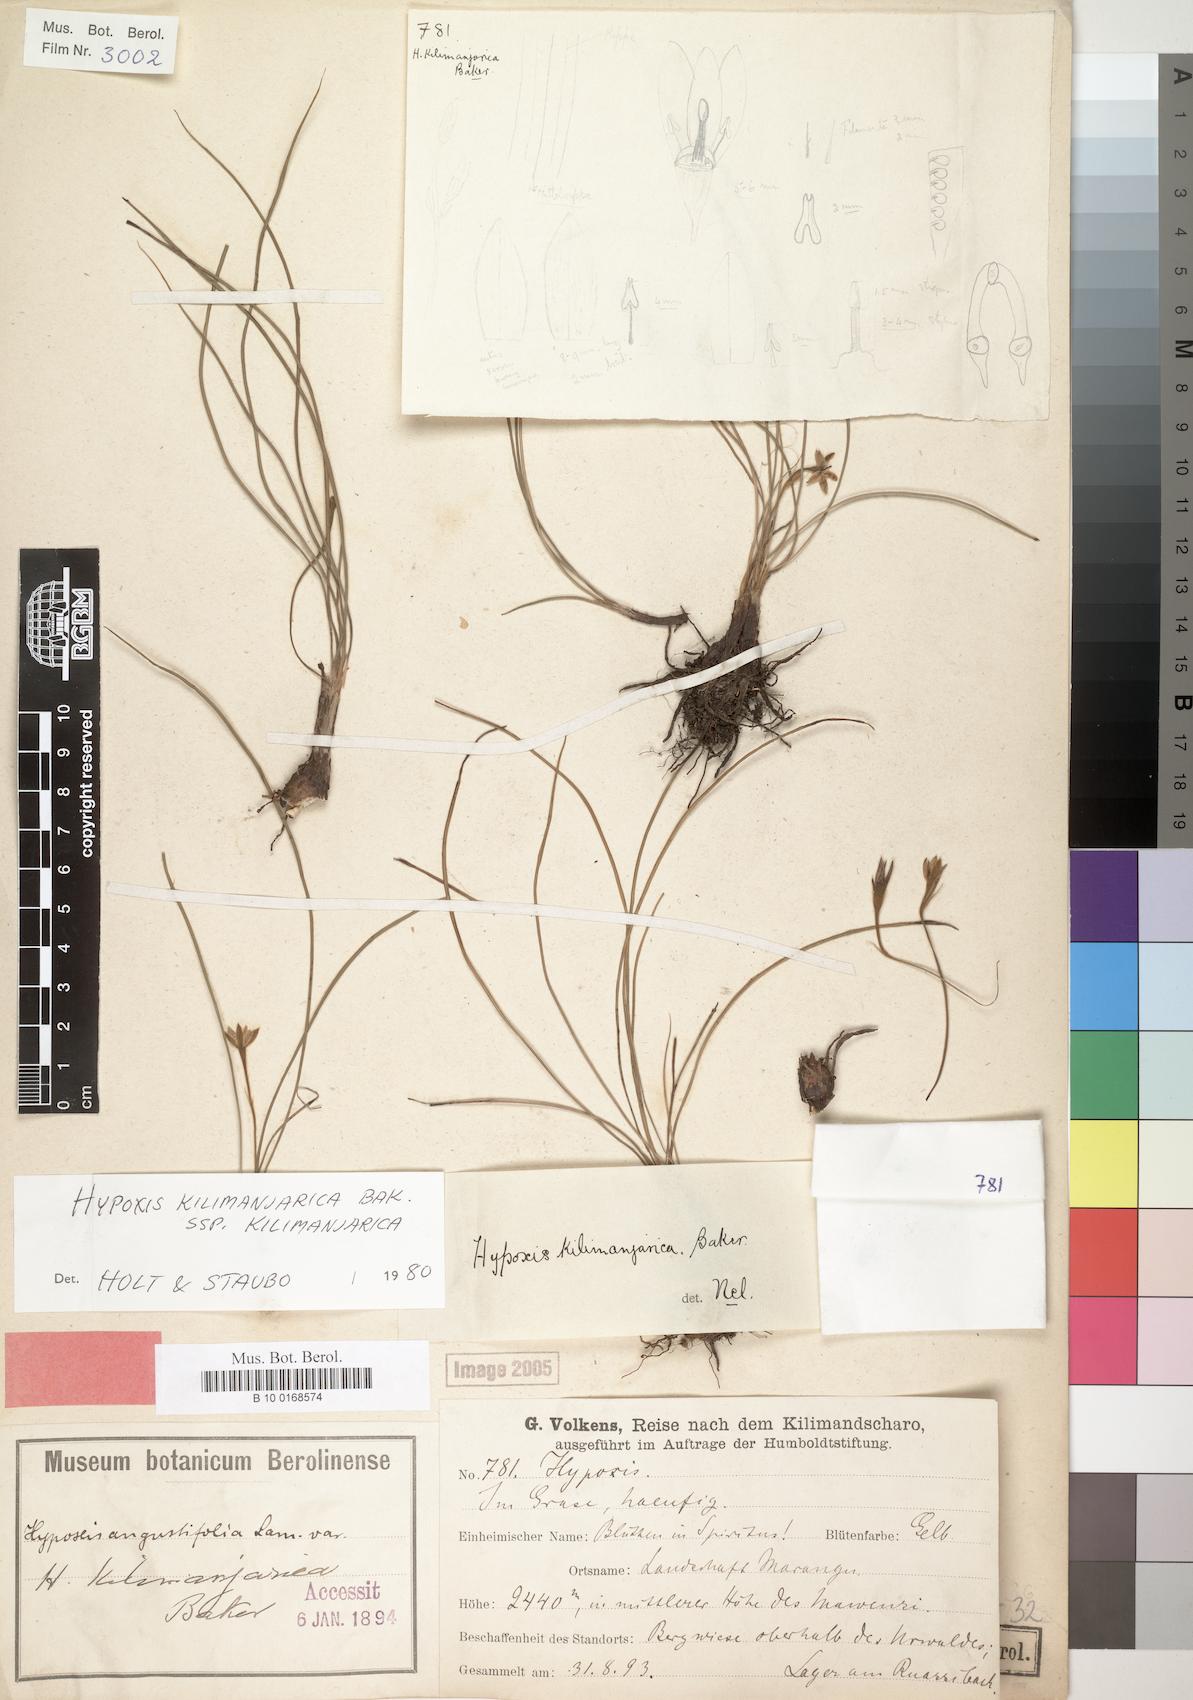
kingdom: Plantae
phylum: Tracheophyta
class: Liliopsida
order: Asparagales
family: Hypoxidaceae
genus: Hypoxis
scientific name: Hypoxis kilimanjarica
